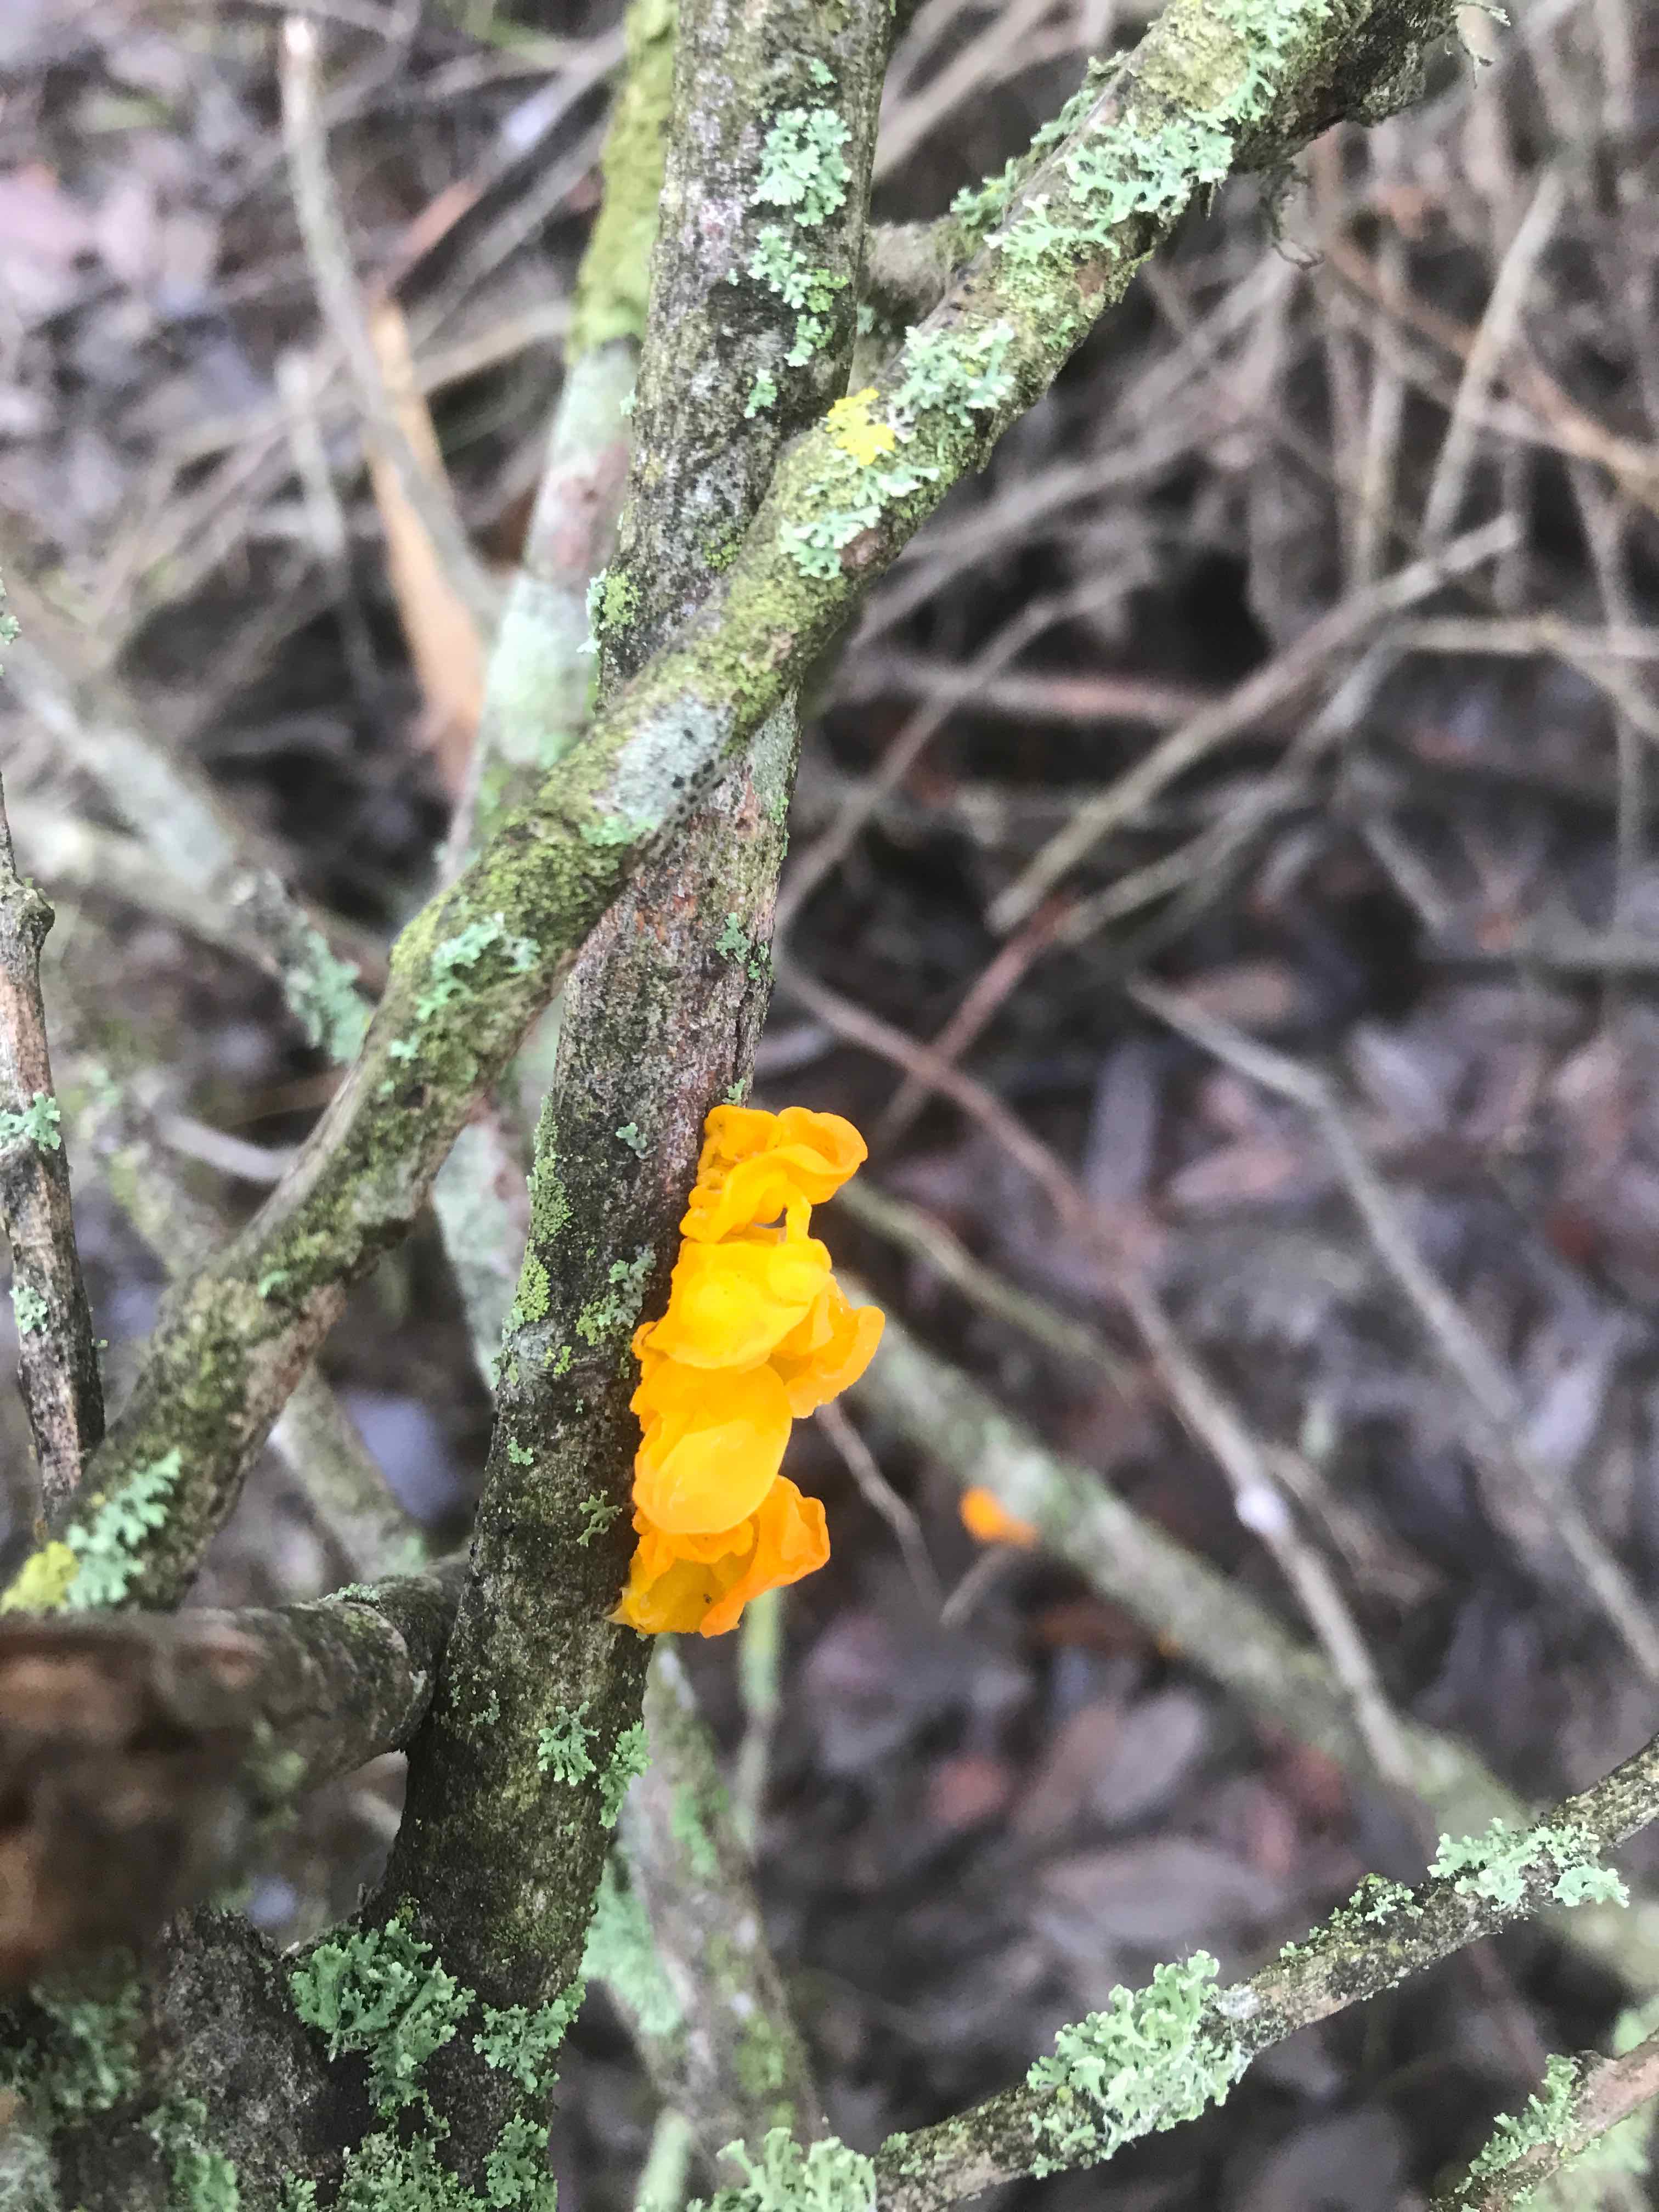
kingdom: Fungi
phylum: Basidiomycota
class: Tremellomycetes
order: Tremellales
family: Tremellaceae
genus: Tremella
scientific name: Tremella mesenterica
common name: gul bævresvamp
